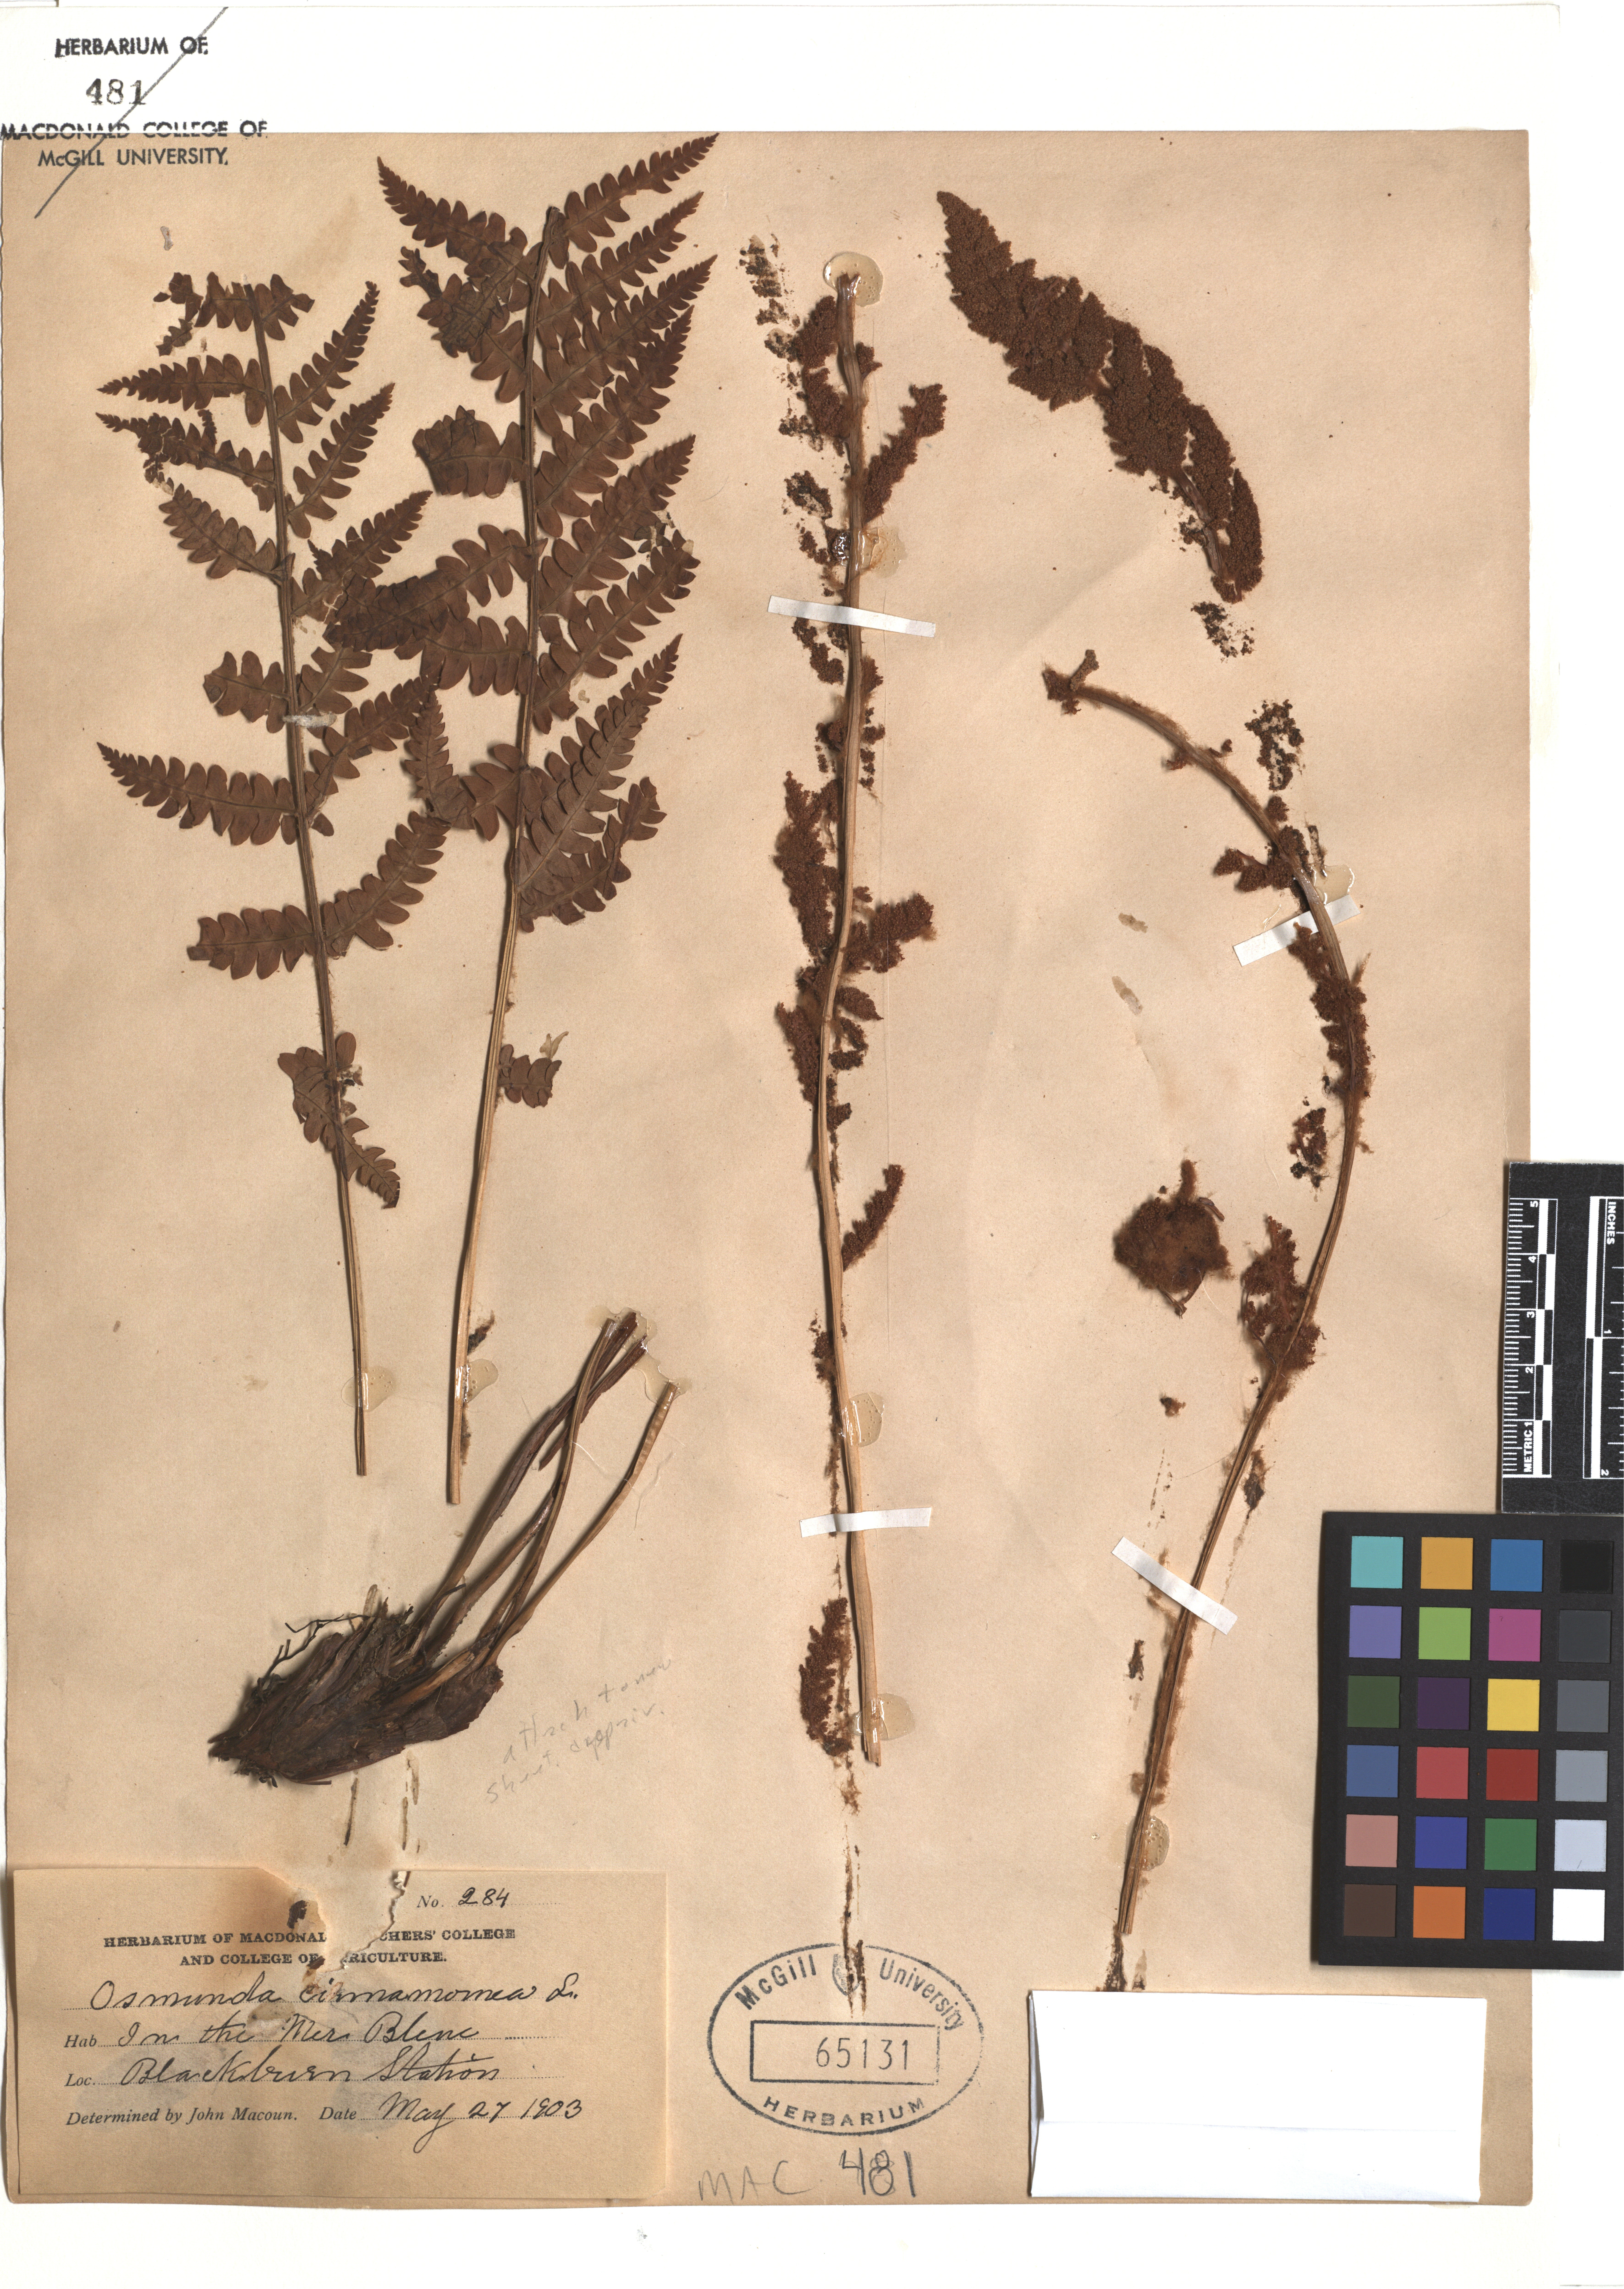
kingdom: Plantae
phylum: Tracheophyta
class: Polypodiopsida
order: Osmundales
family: Osmundaceae
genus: Osmundastrum
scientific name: Osmundastrum cinnamomeum
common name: Cinnamon fern
